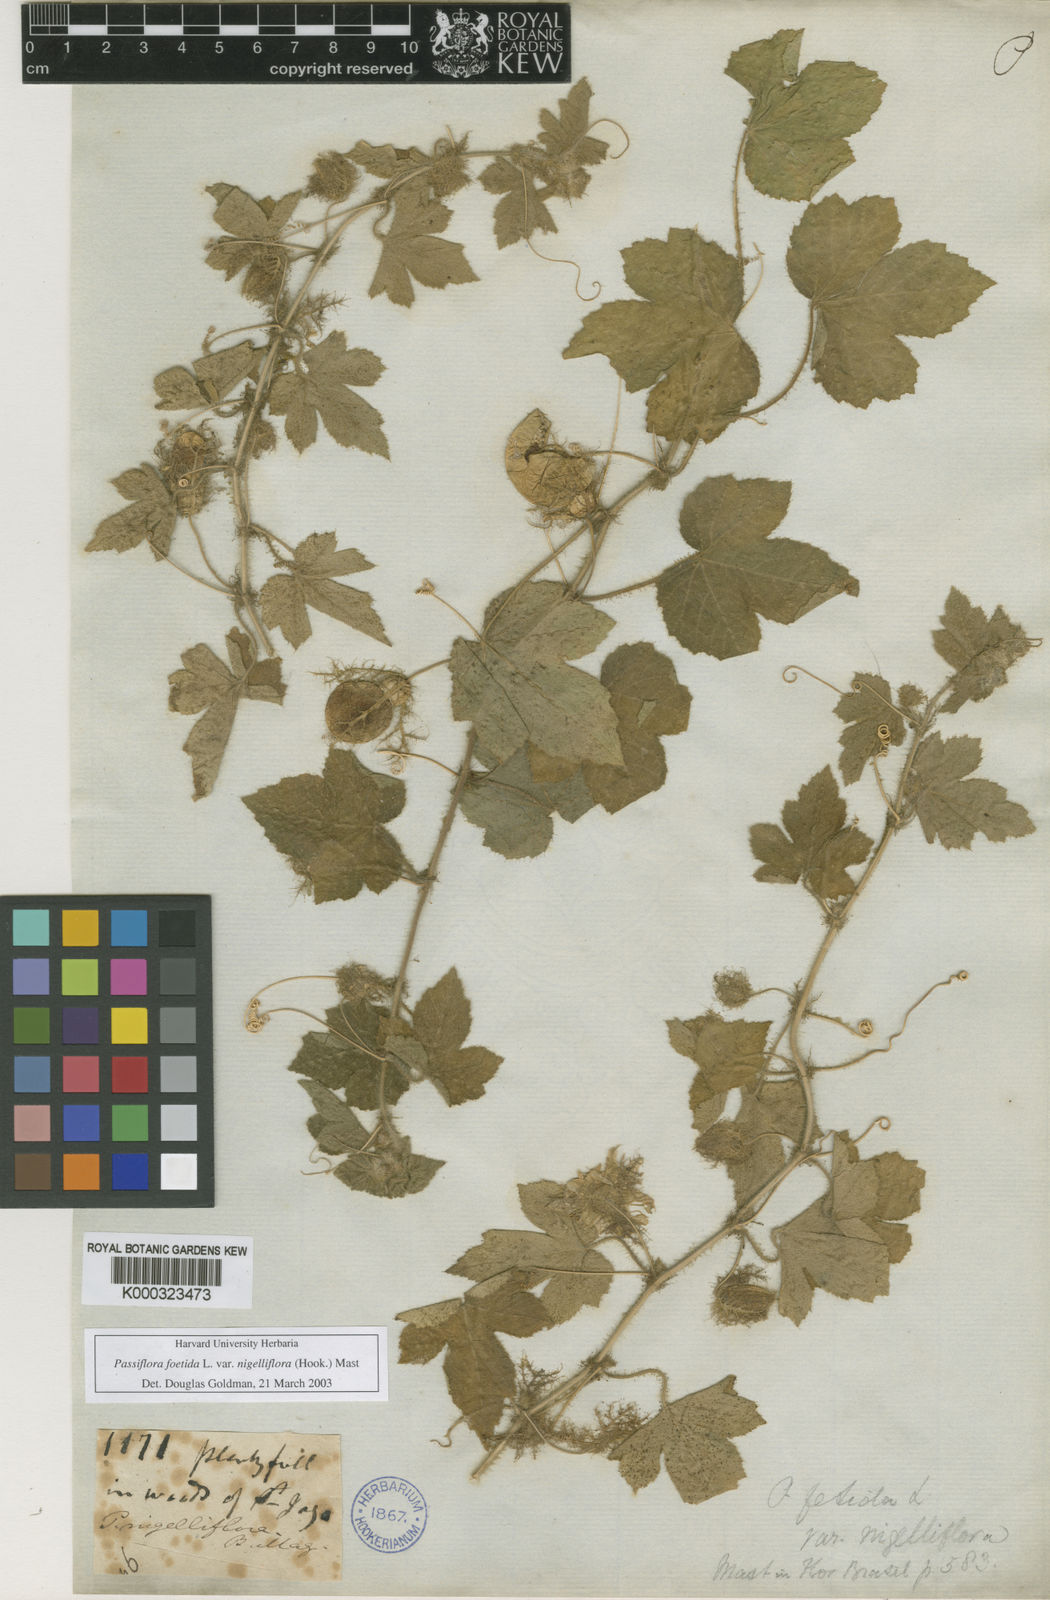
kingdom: Plantae
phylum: Tracheophyta
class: Magnoliopsida
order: Malpighiales
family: Passifloraceae
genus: Passiflora
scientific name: Passiflora foetida
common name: Fetid passionflower
